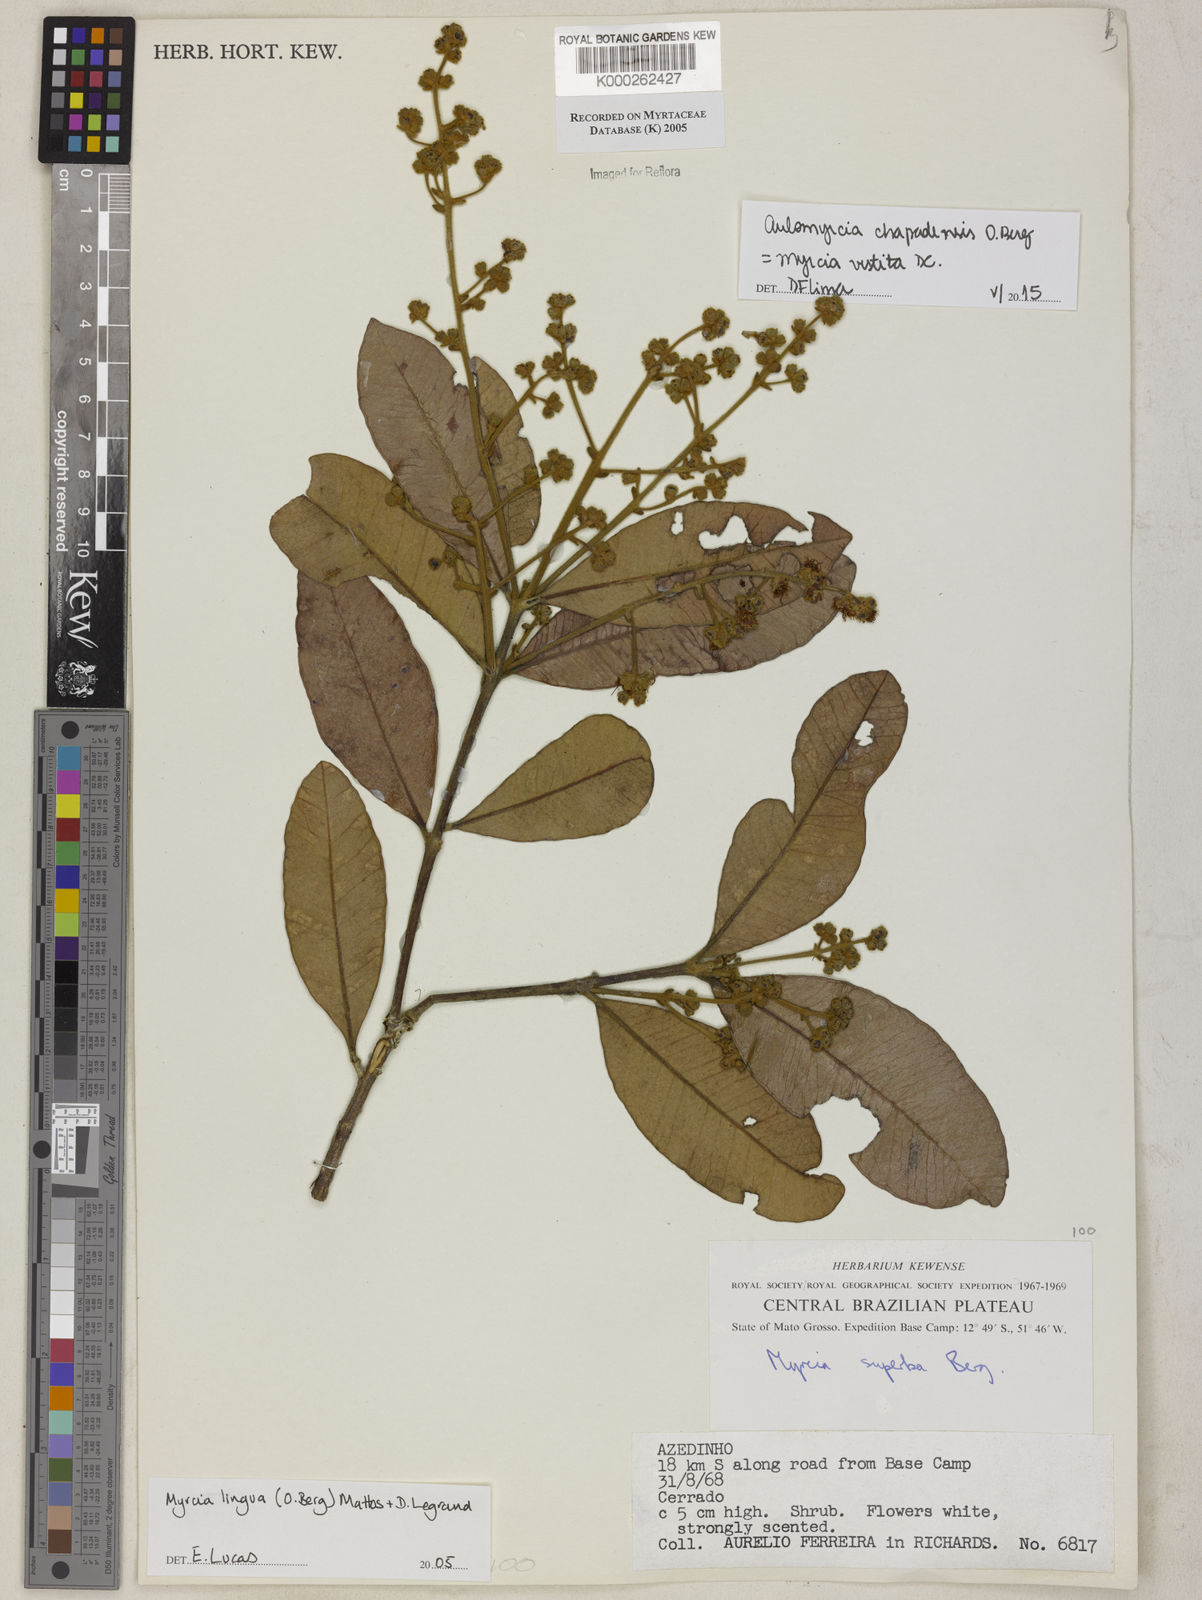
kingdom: Plantae
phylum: Tracheophyta
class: Magnoliopsida
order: Myrtales
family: Myrtaceae
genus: Myrcia
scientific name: Myrcia guianensis
